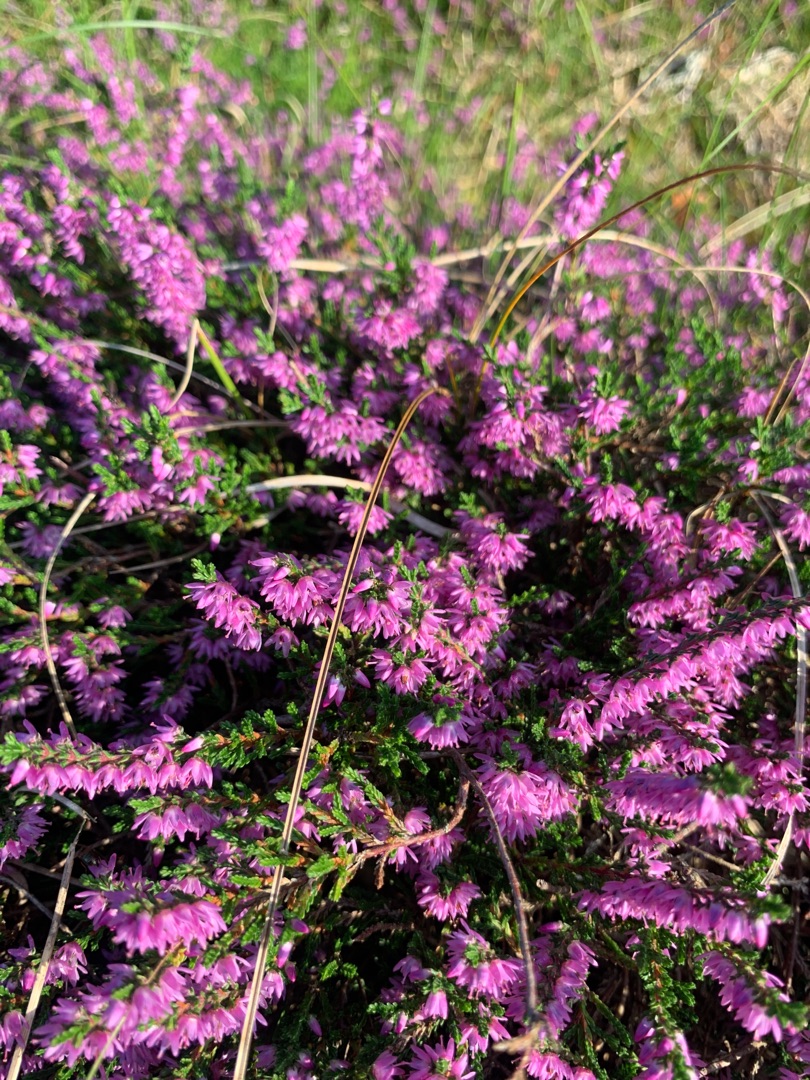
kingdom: Plantae
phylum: Tracheophyta
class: Magnoliopsida
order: Ericales
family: Ericaceae
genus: Calluna
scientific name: Calluna vulgaris
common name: Hedelyng
